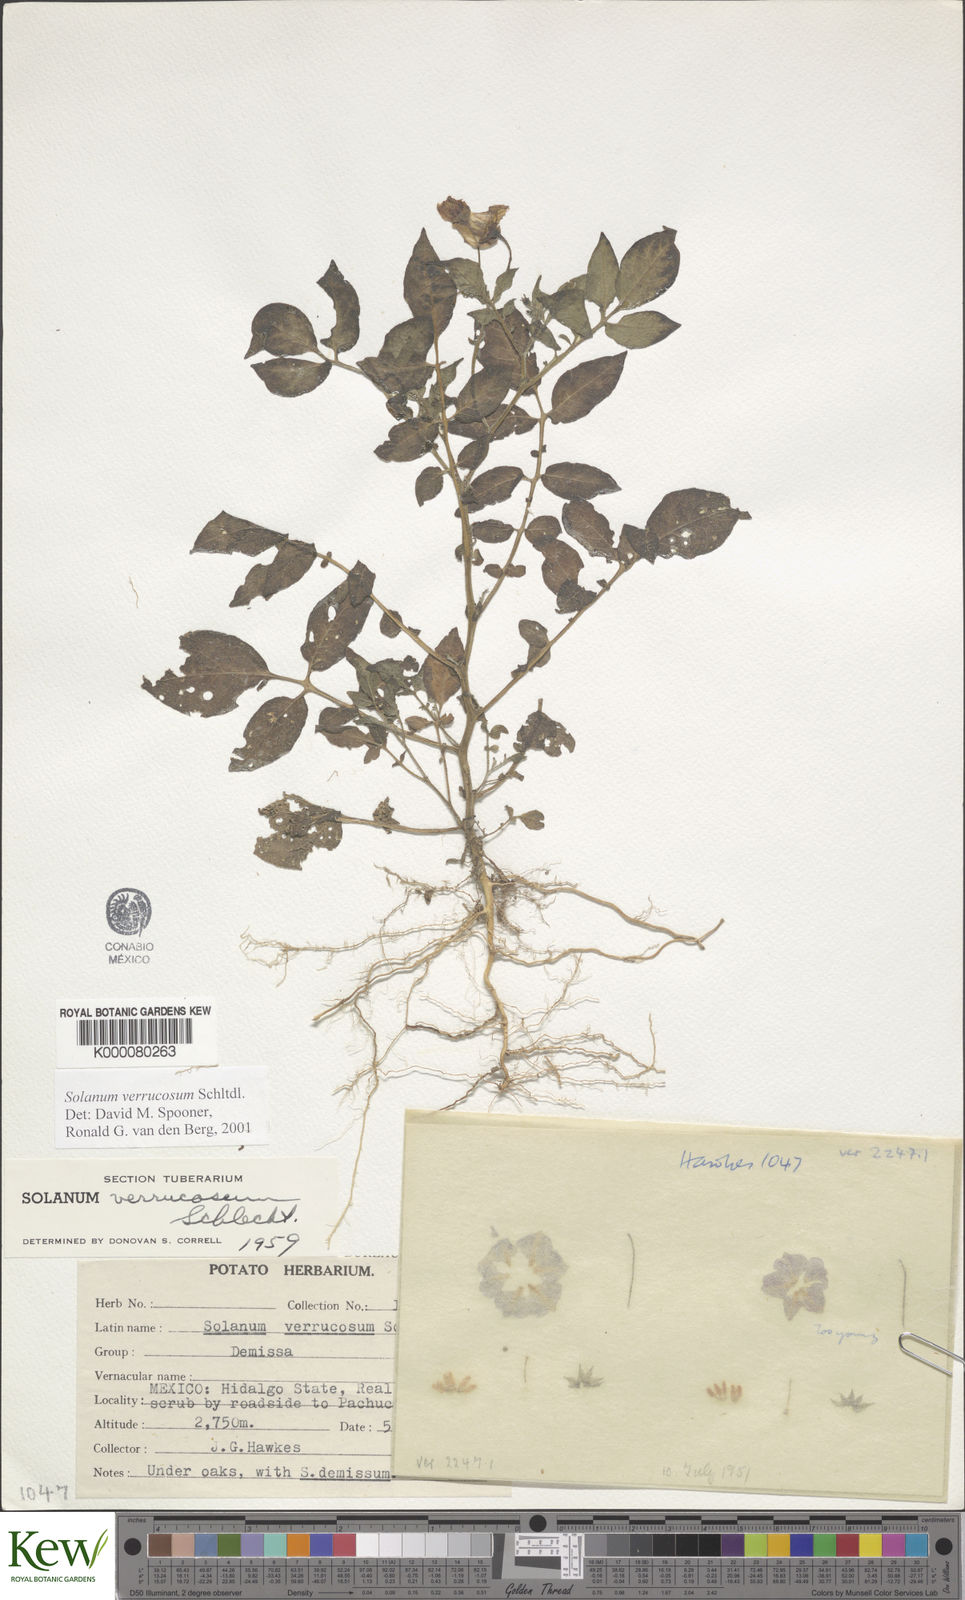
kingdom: Plantae
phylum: Tracheophyta
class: Magnoliopsida
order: Solanales
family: Solanaceae
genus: Solanum
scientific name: Solanum verrucosum
